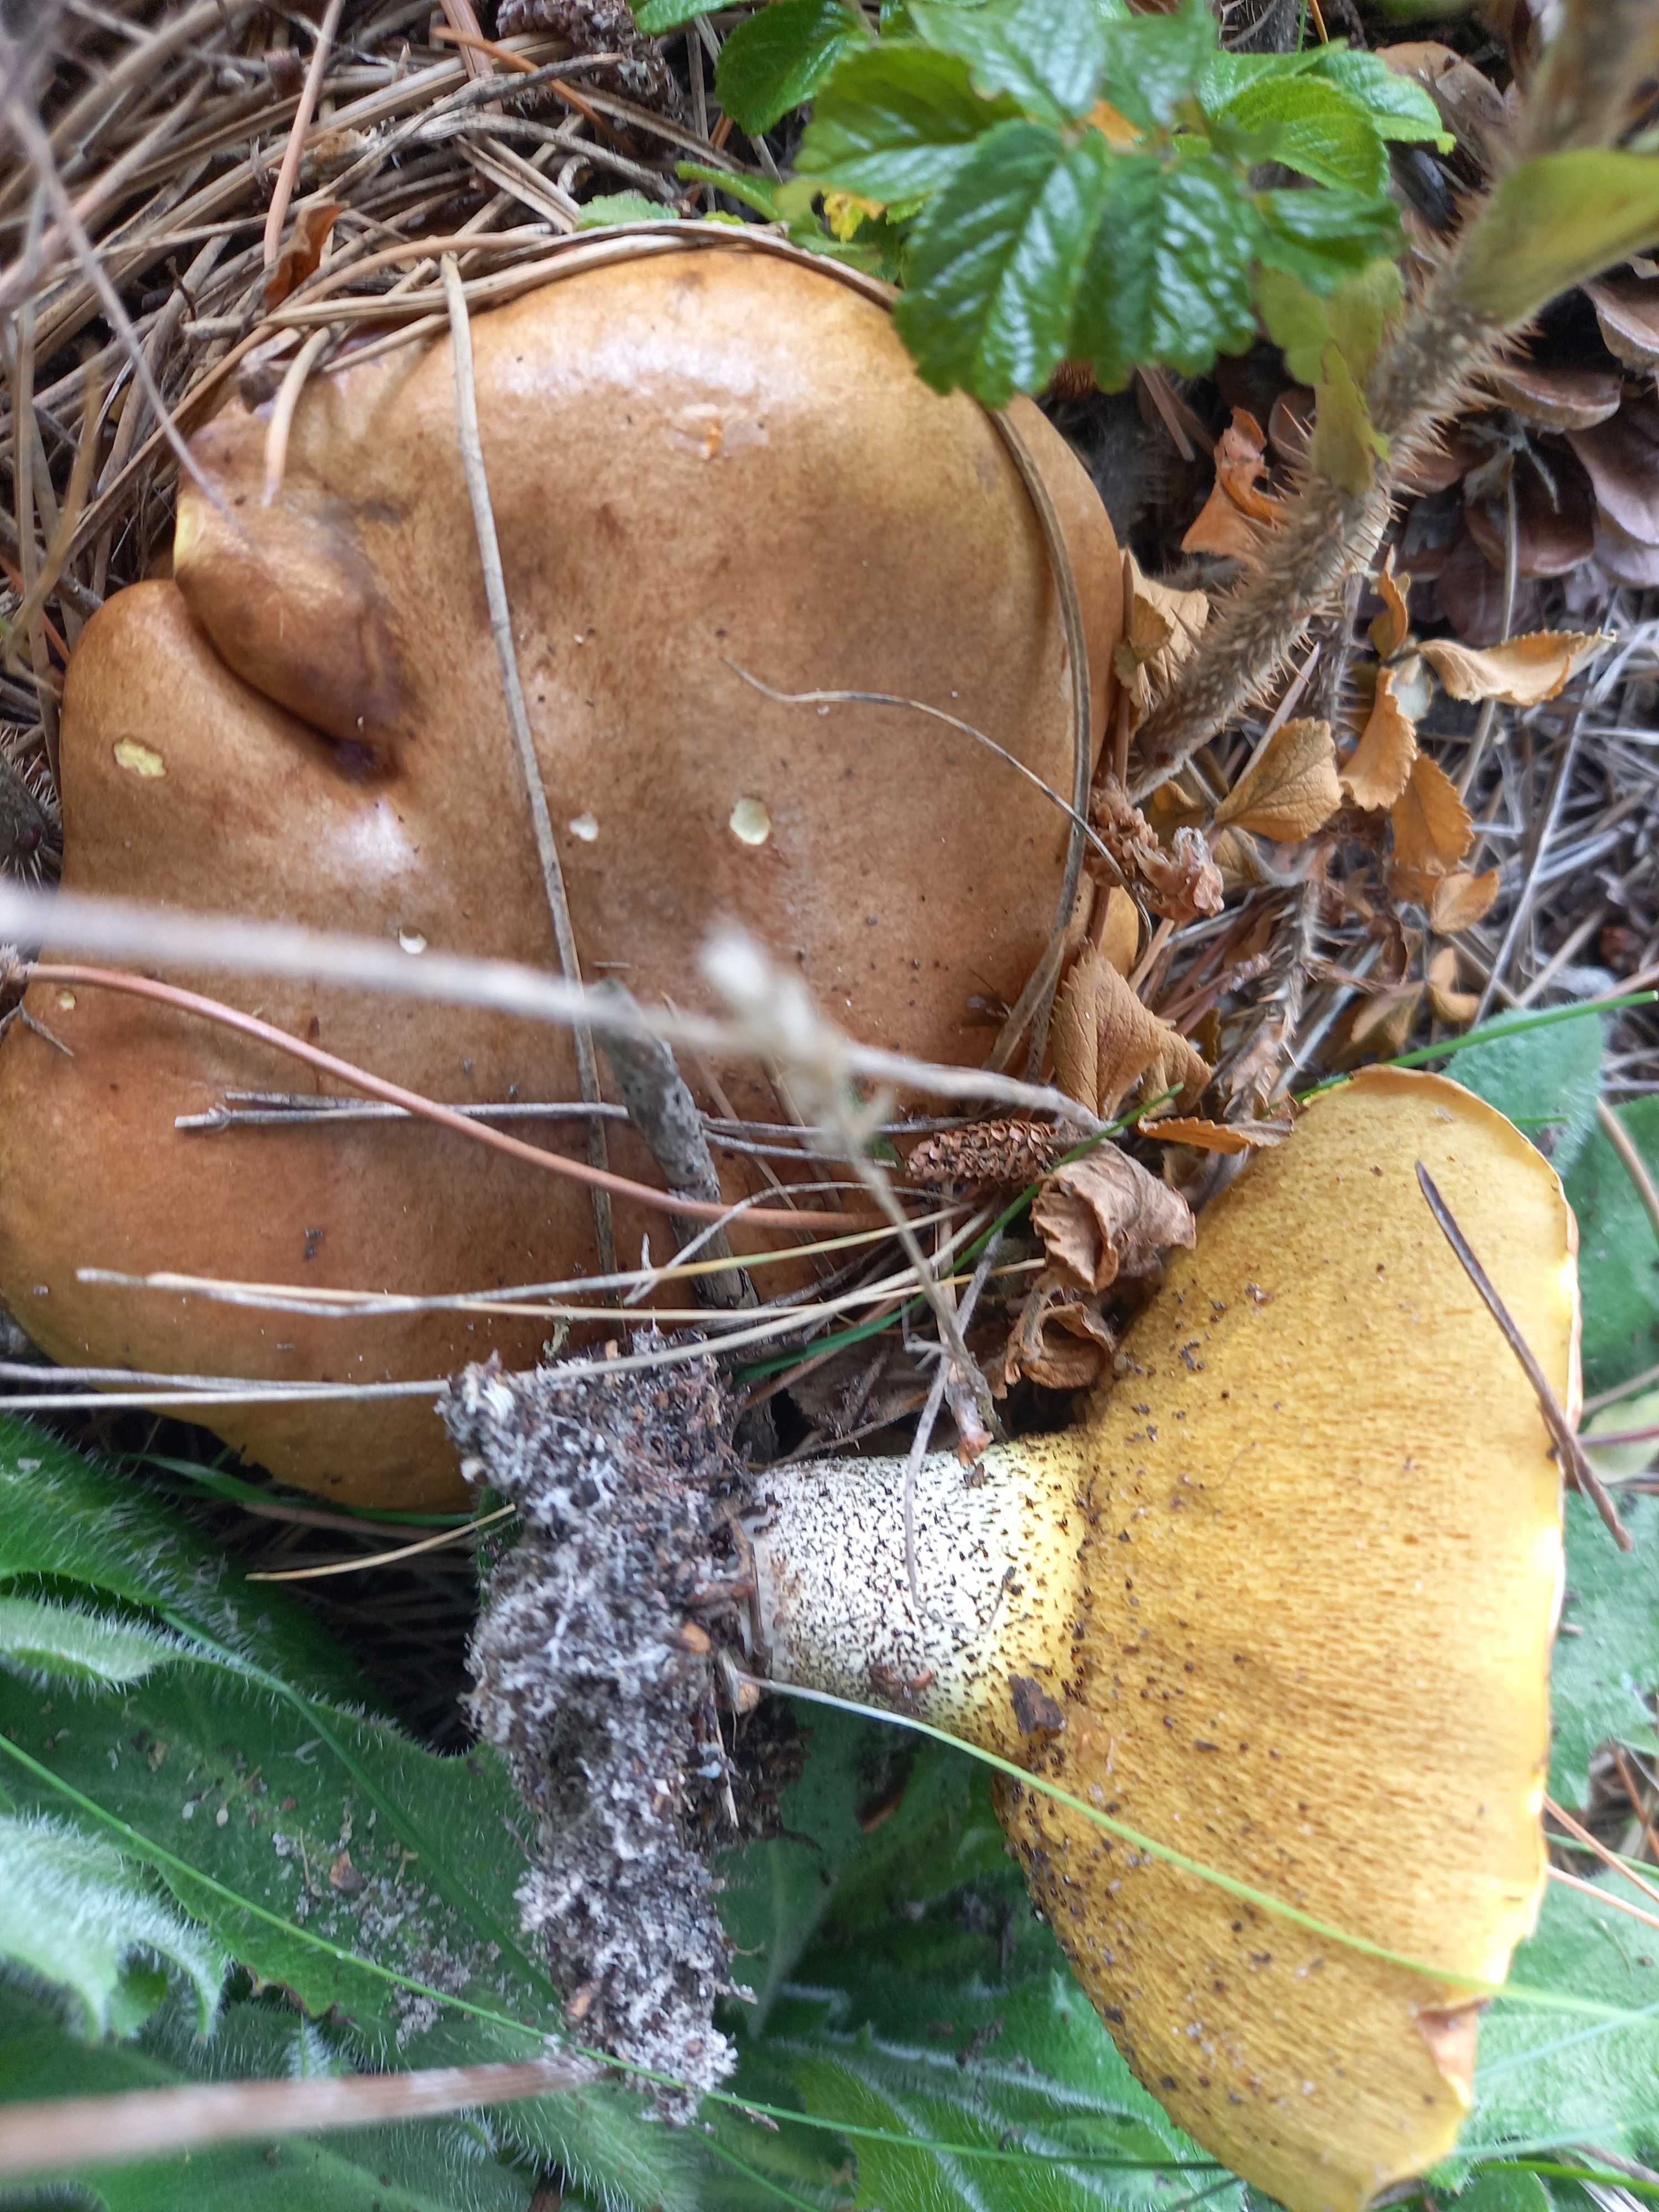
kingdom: Fungi
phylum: Basidiomycota
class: Agaricomycetes
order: Boletales
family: Suillaceae
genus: Suillus
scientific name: Suillus collinitus
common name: rosafodet slimrørhat
